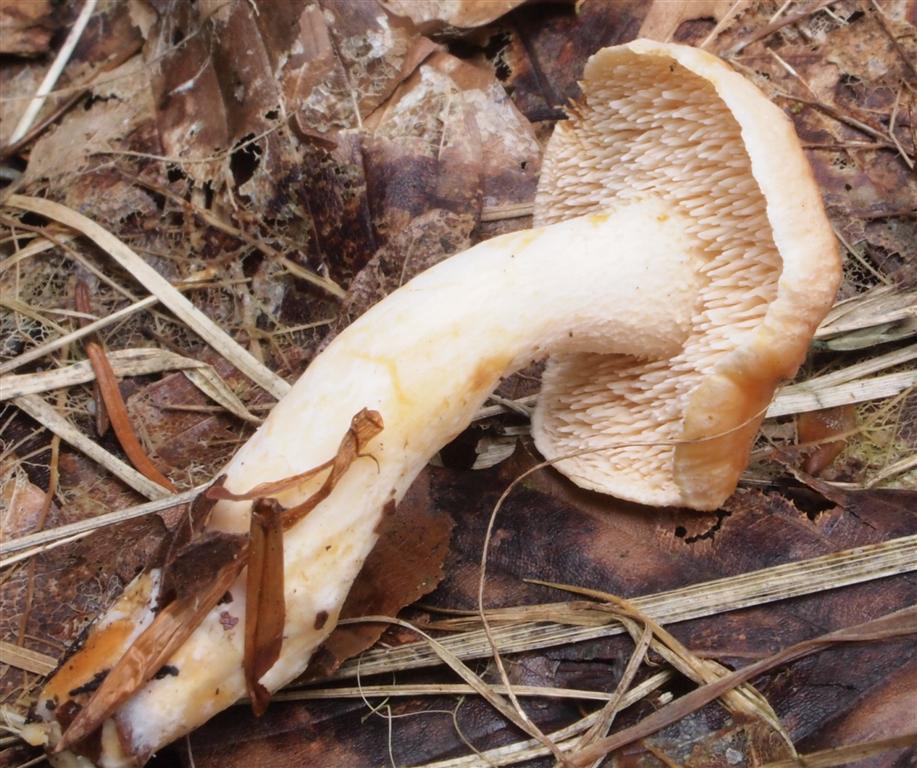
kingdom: Fungi
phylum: Basidiomycota
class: Agaricomycetes
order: Cantharellales
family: Hydnaceae
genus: Hydnum
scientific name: Hydnum umbilicatum
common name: navle-pigsvamp
